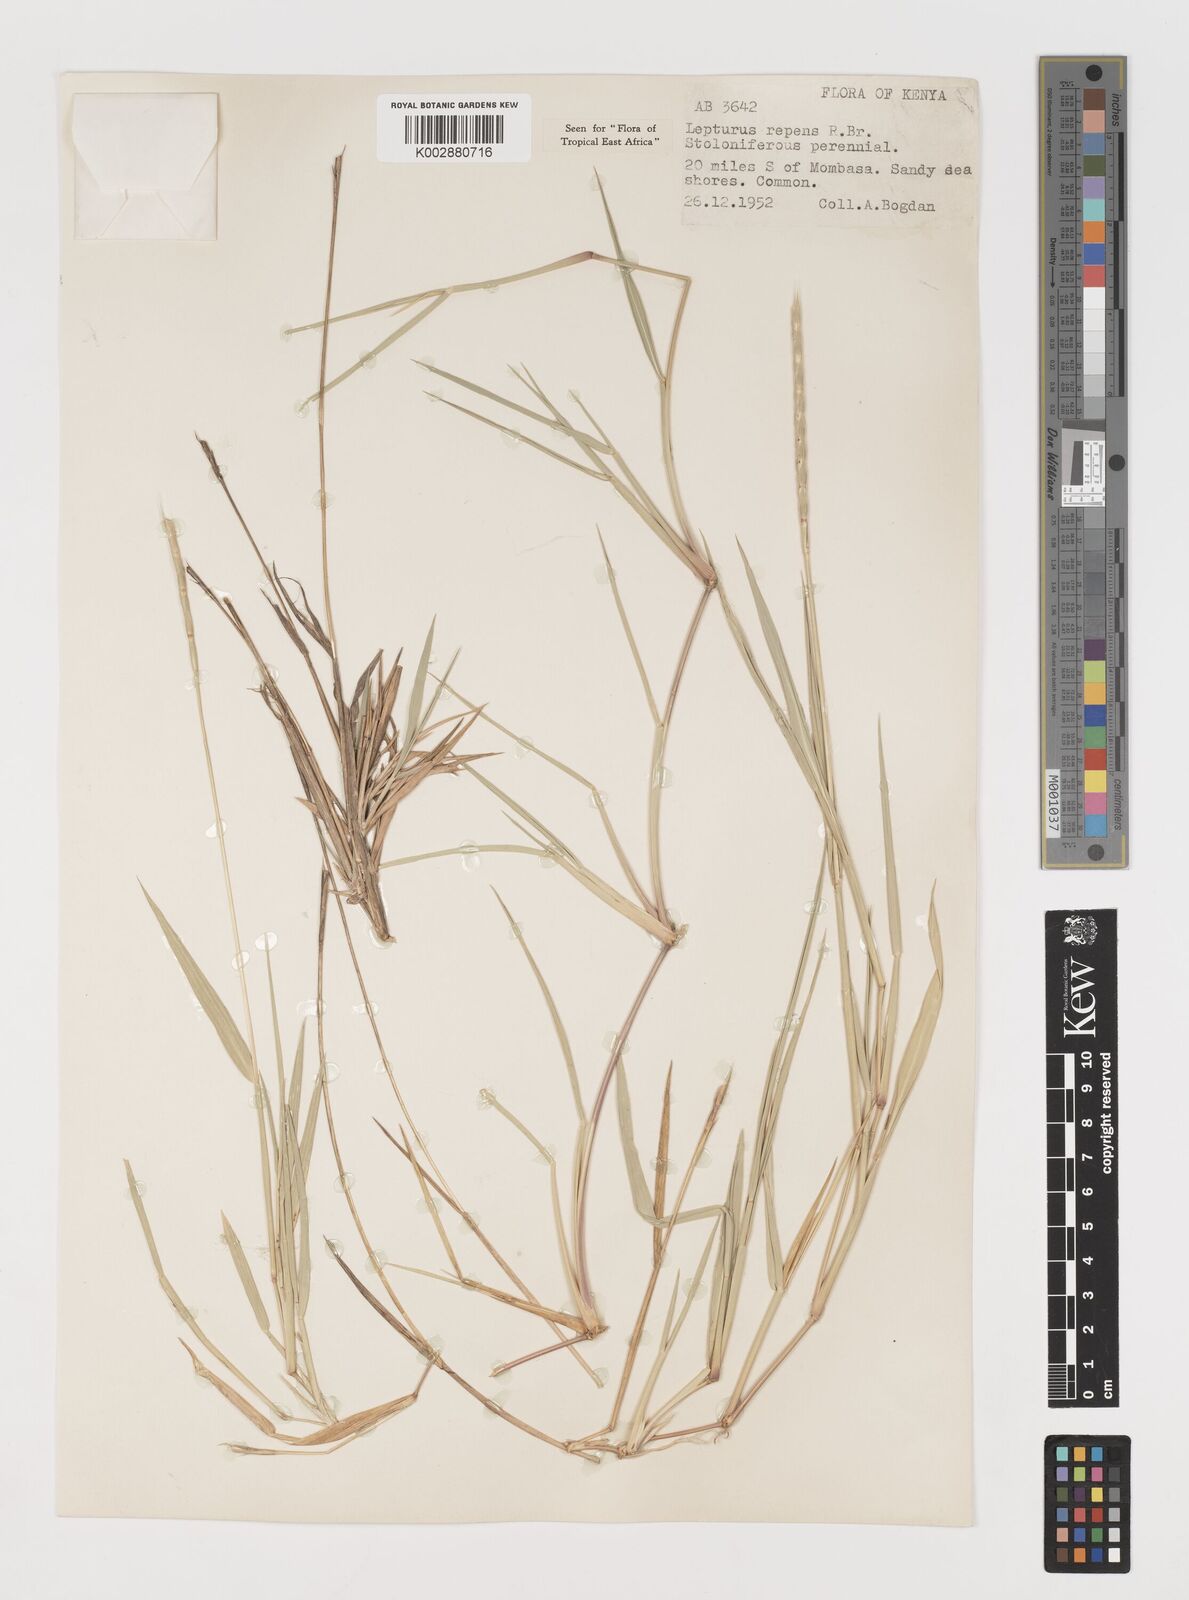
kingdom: Plantae
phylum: Tracheophyta
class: Liliopsida
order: Poales
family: Poaceae
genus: Lepturus
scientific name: Lepturus repens
